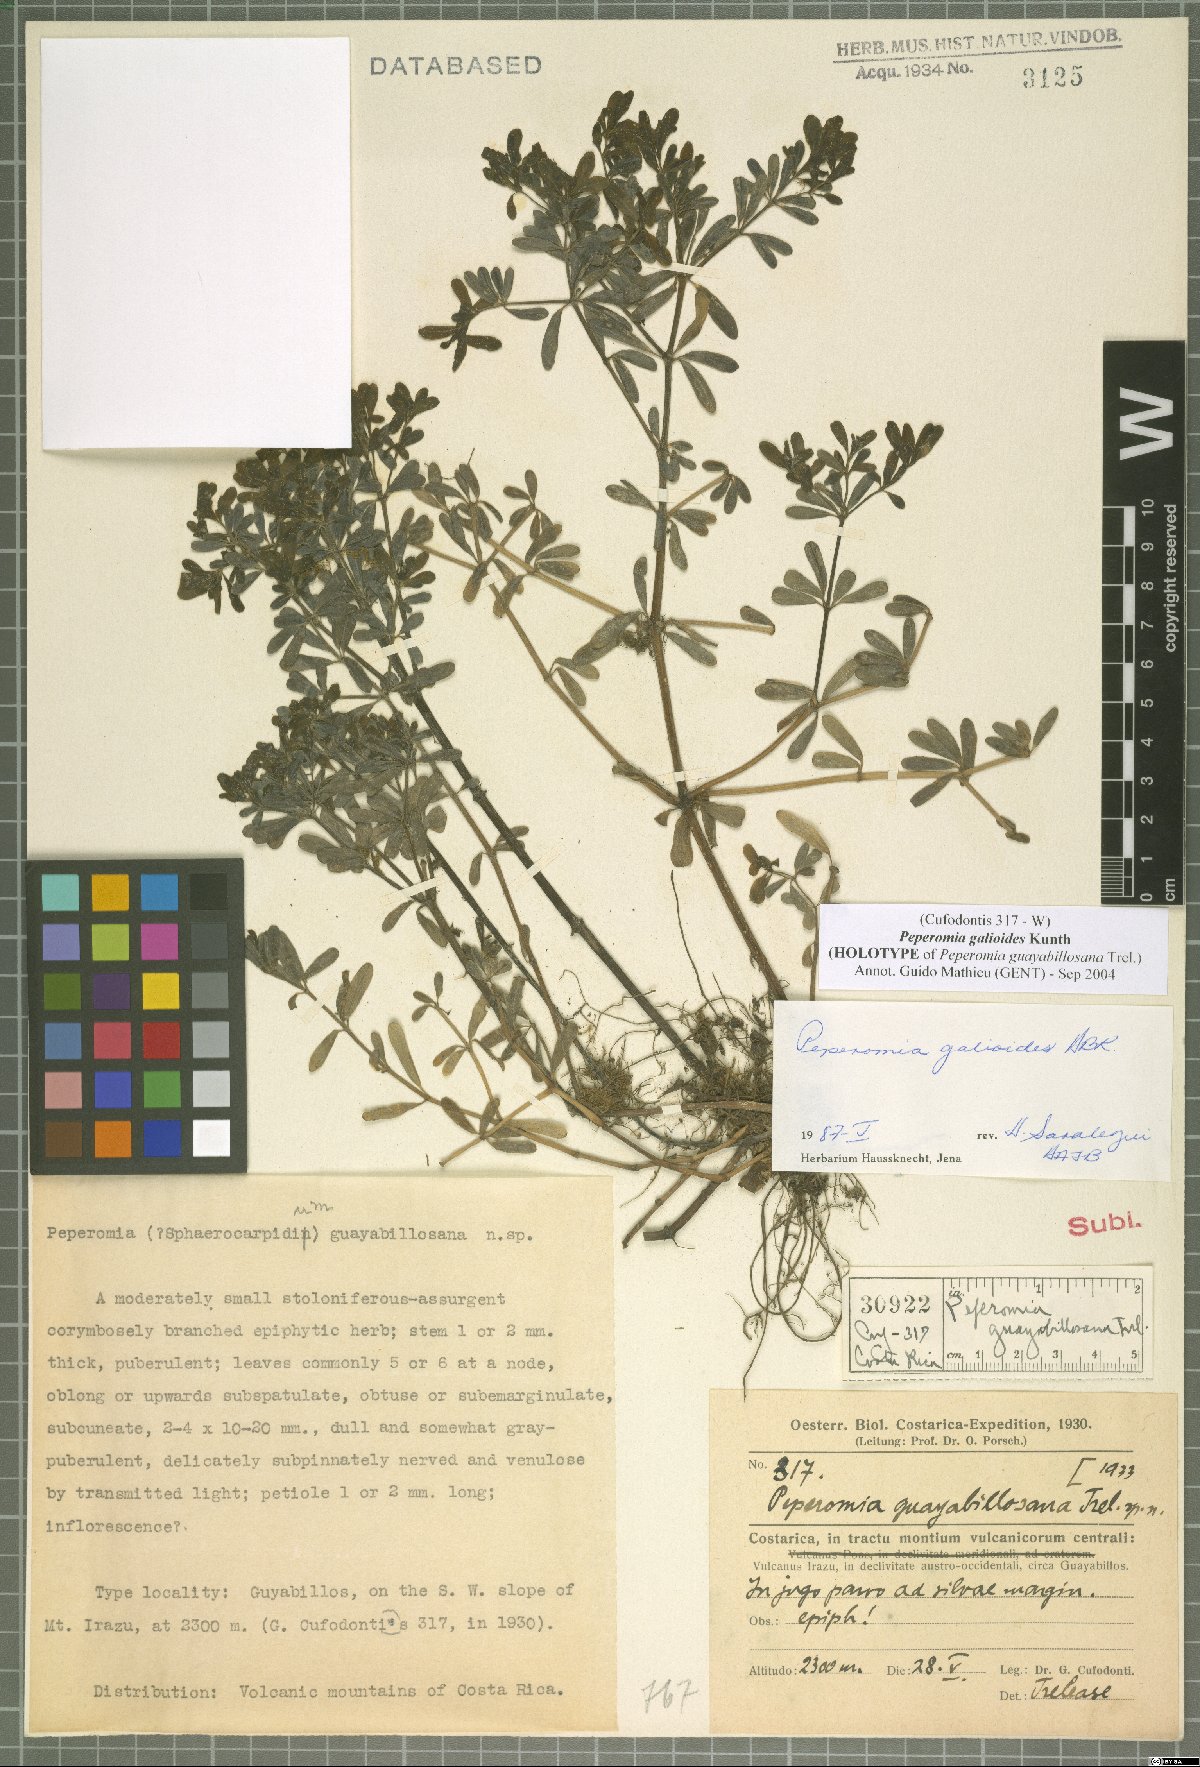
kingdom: Plantae
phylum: Tracheophyta
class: Magnoliopsida
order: Piperales
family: Piperaceae
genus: Peperomia
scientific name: Peperomia galioides
